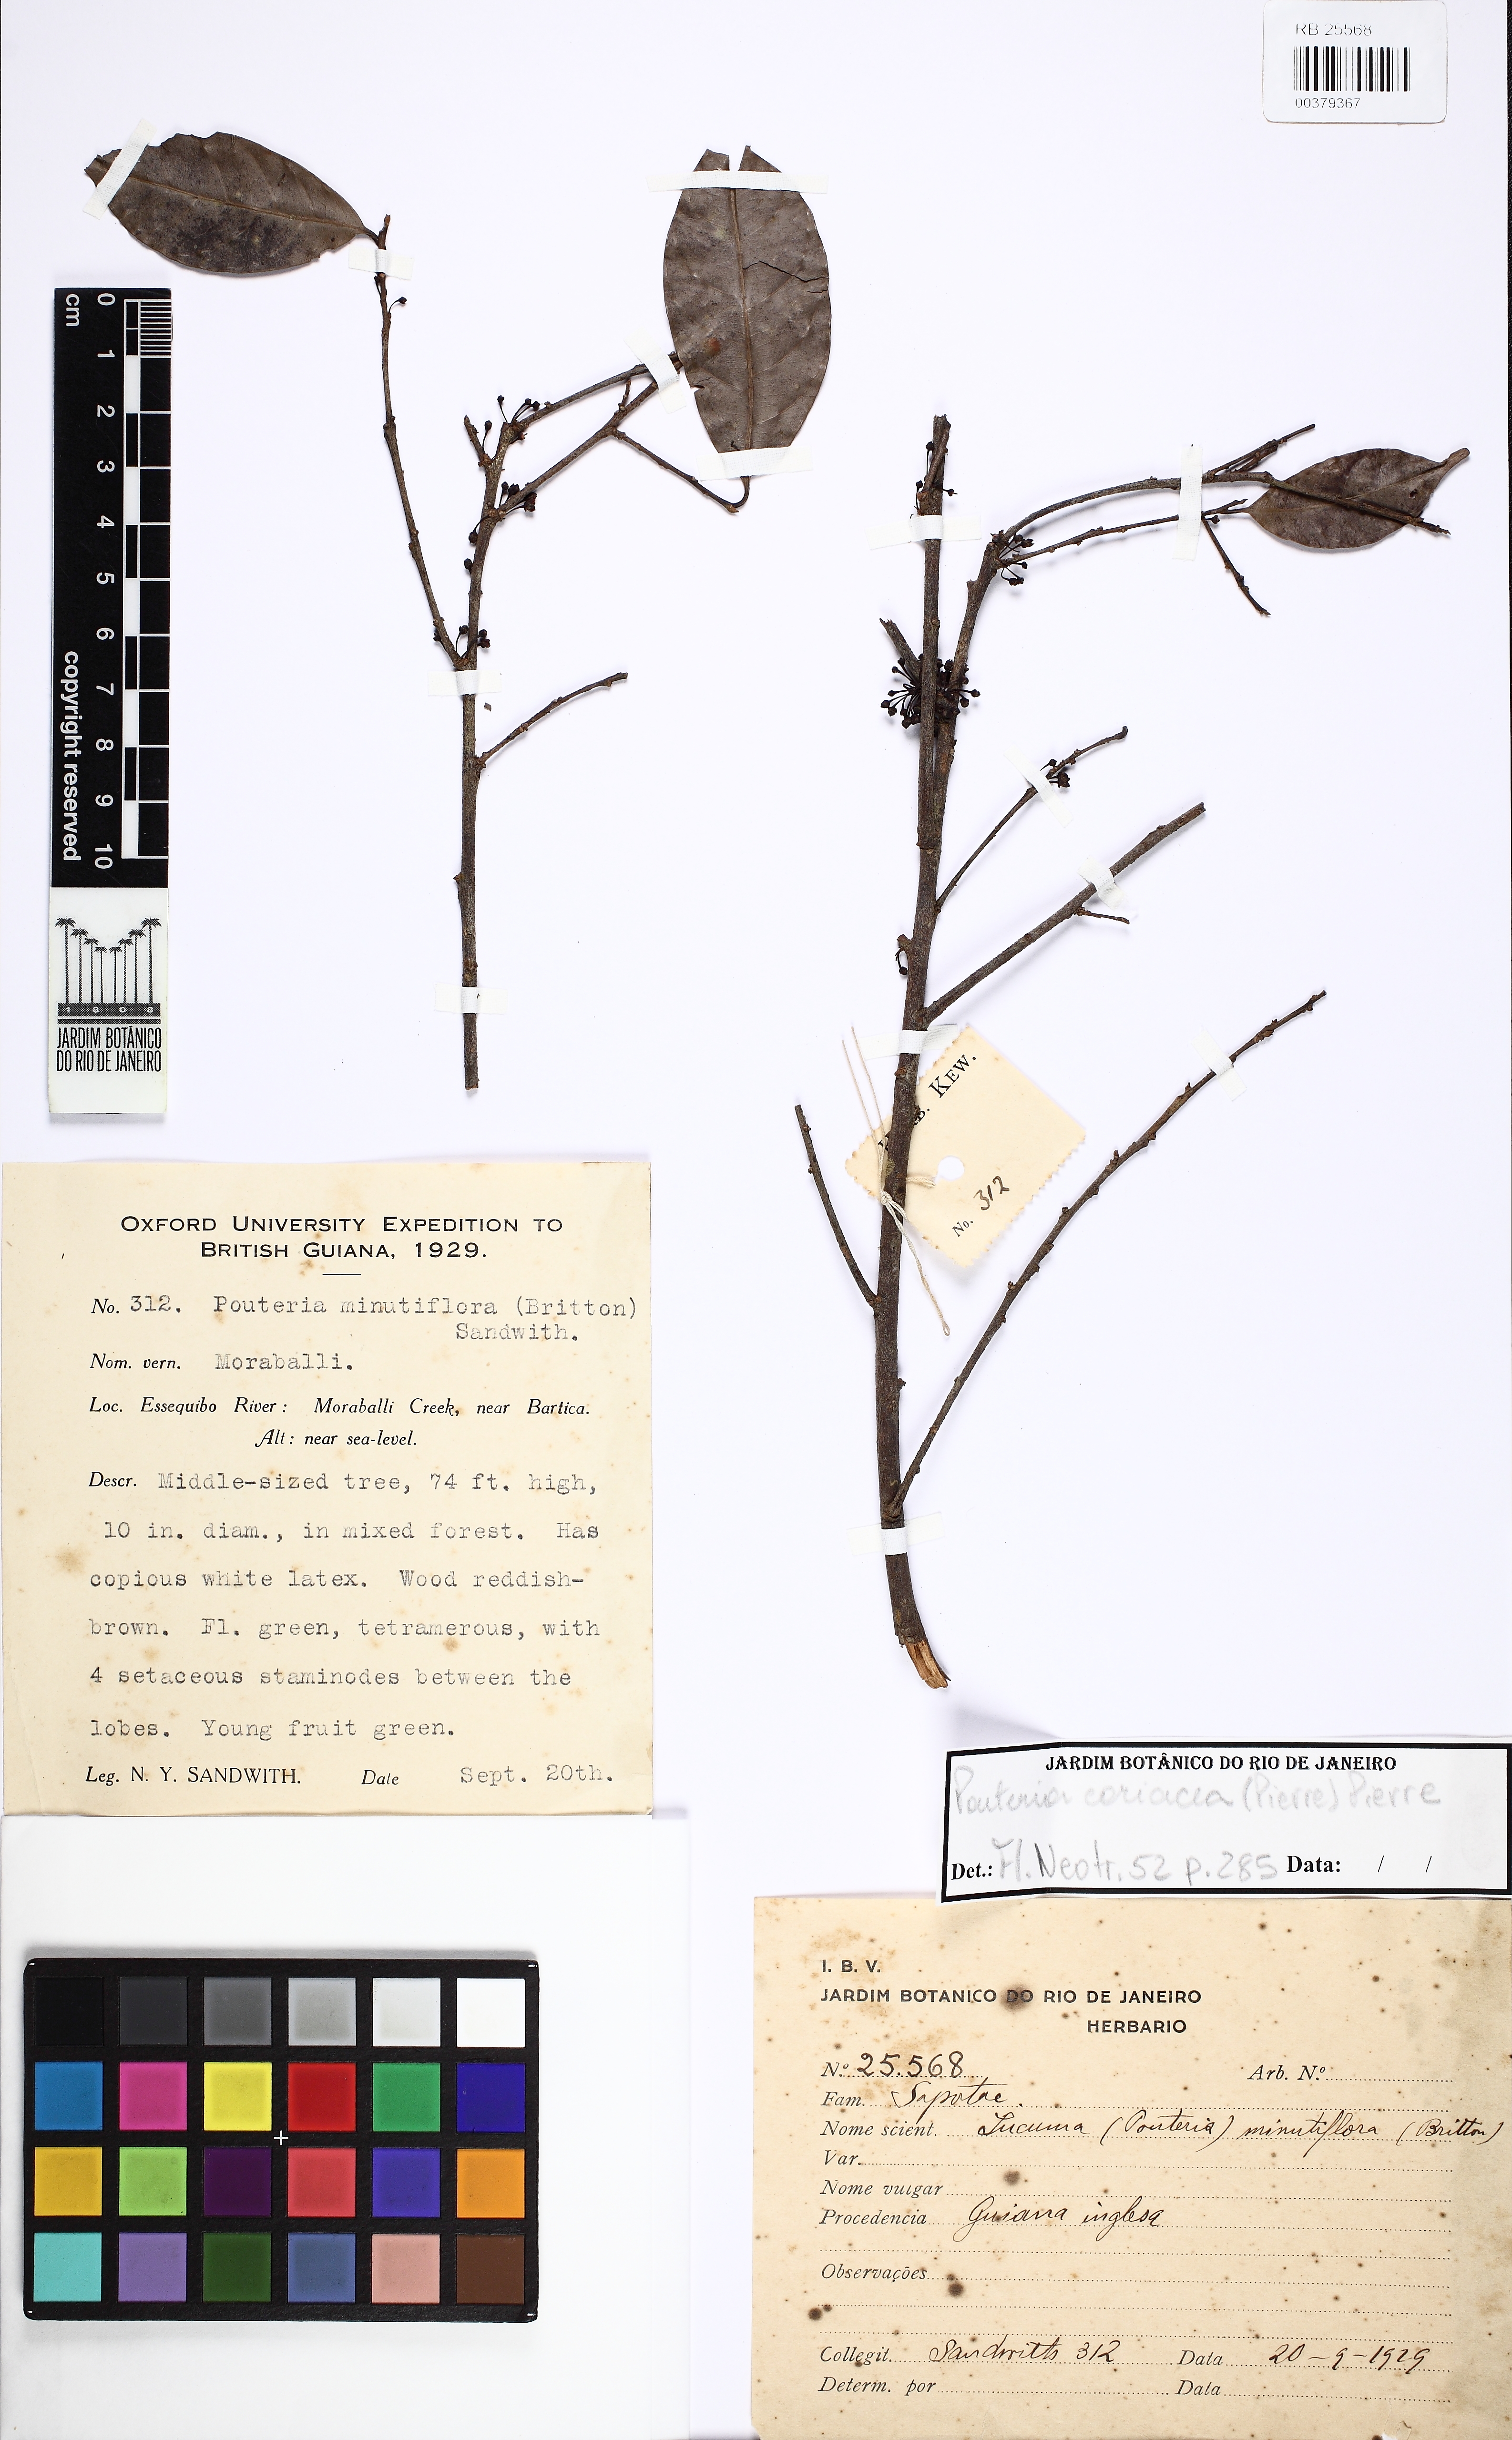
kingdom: Plantae
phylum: Tracheophyta
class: Magnoliopsida
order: Ericales
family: Sapotaceae
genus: Pouteria
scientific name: Pouteria coriacea
